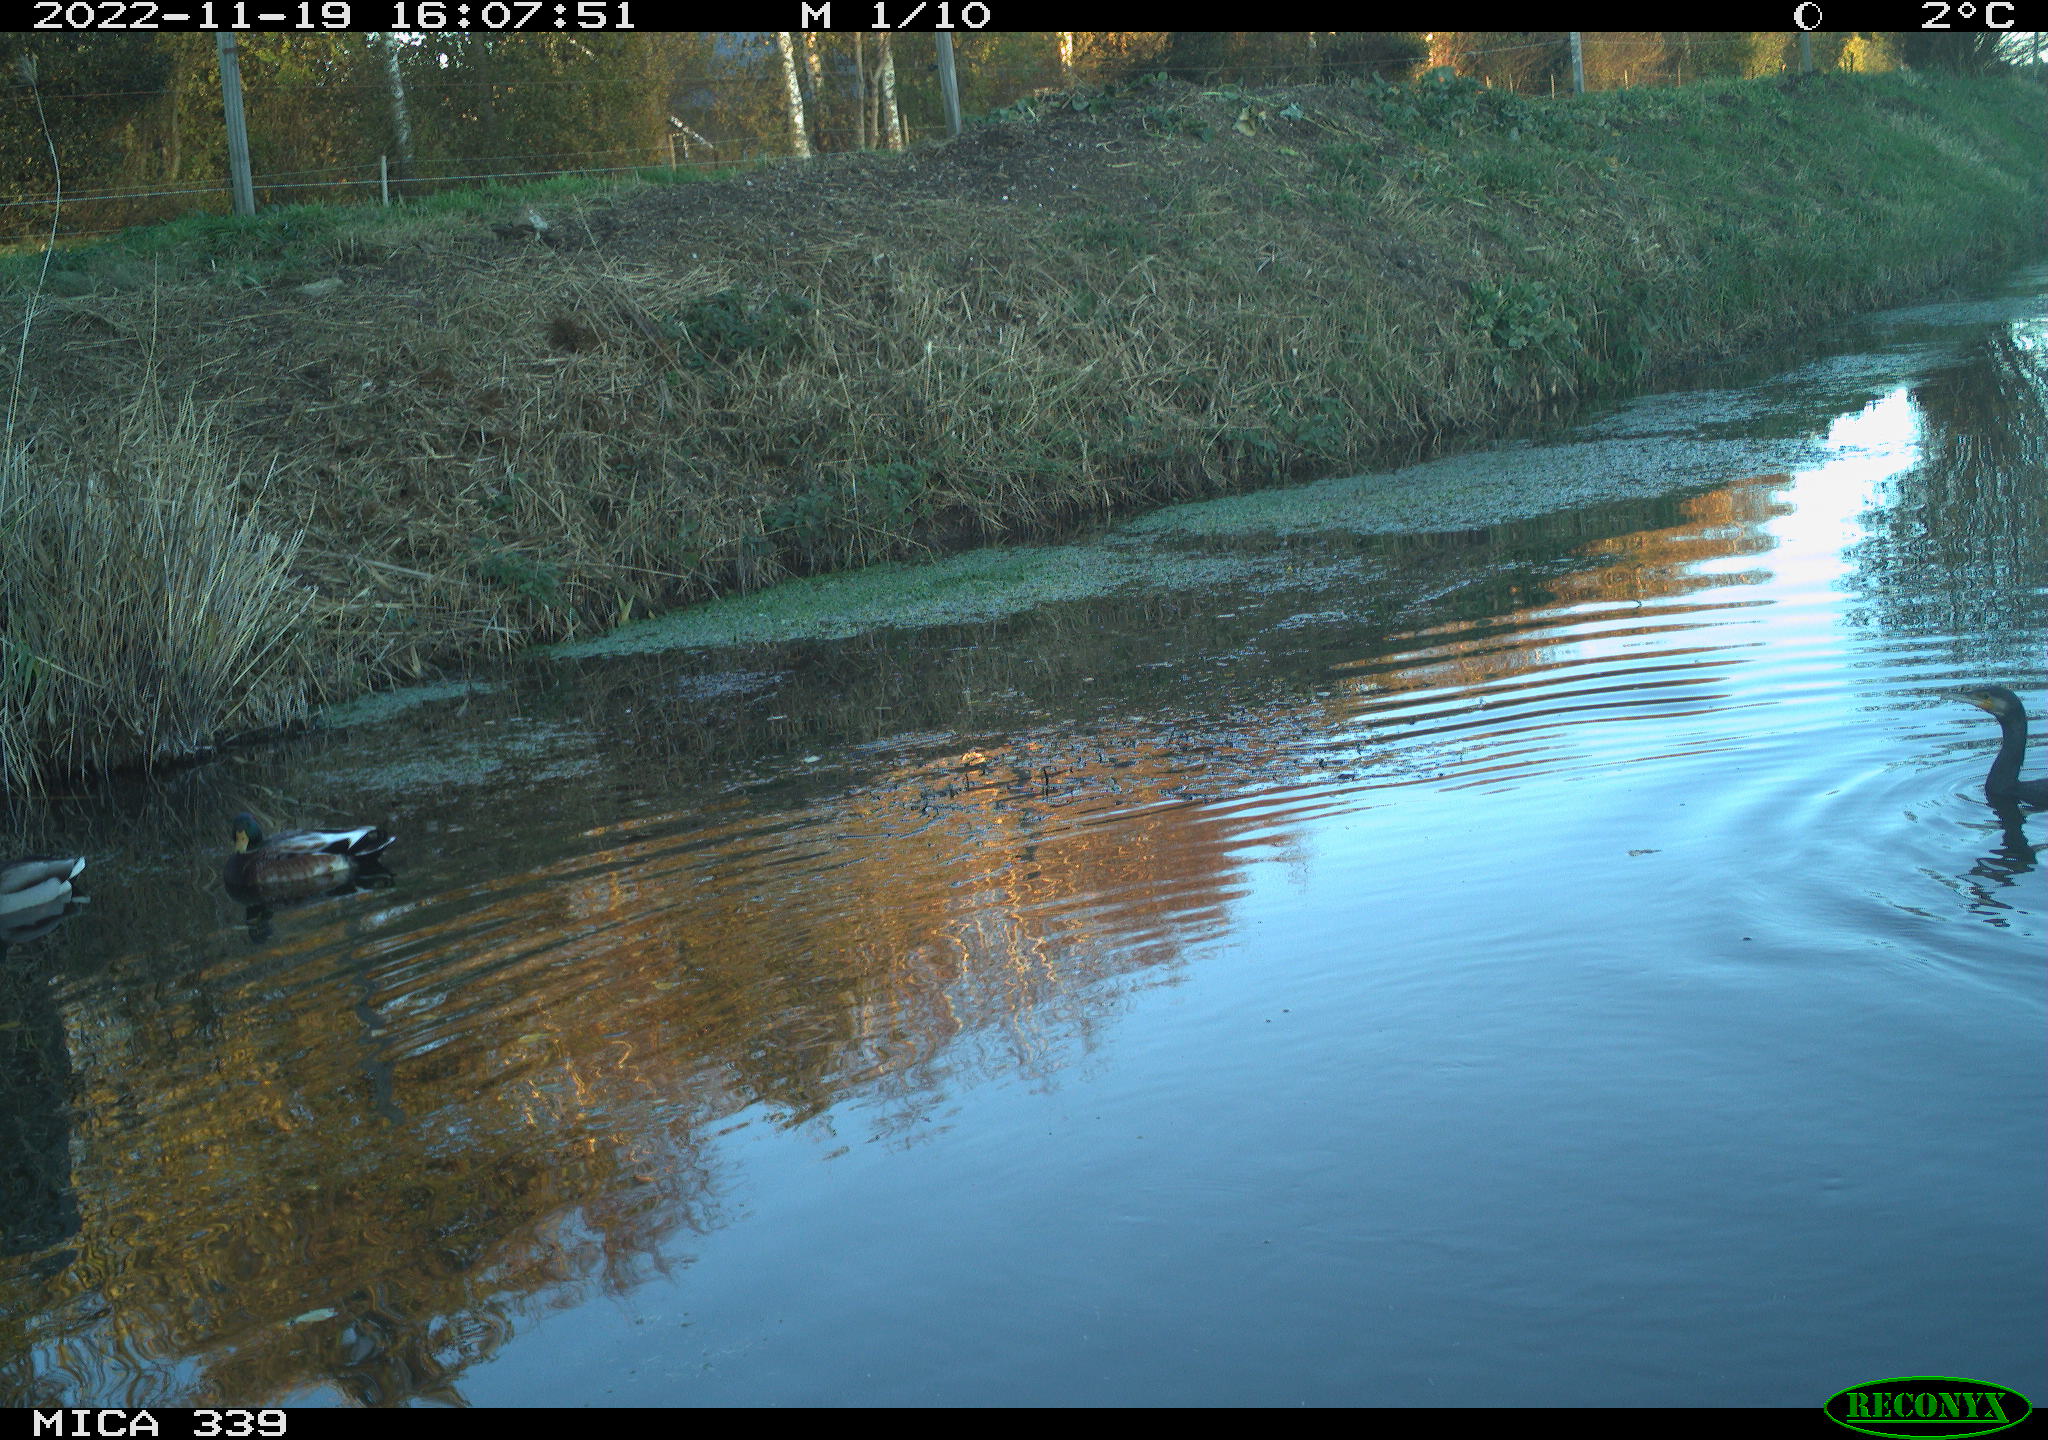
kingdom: Animalia
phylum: Chordata
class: Aves
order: Suliformes
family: Phalacrocoracidae
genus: Phalacrocorax
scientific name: Phalacrocorax carbo
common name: Great cormorant
